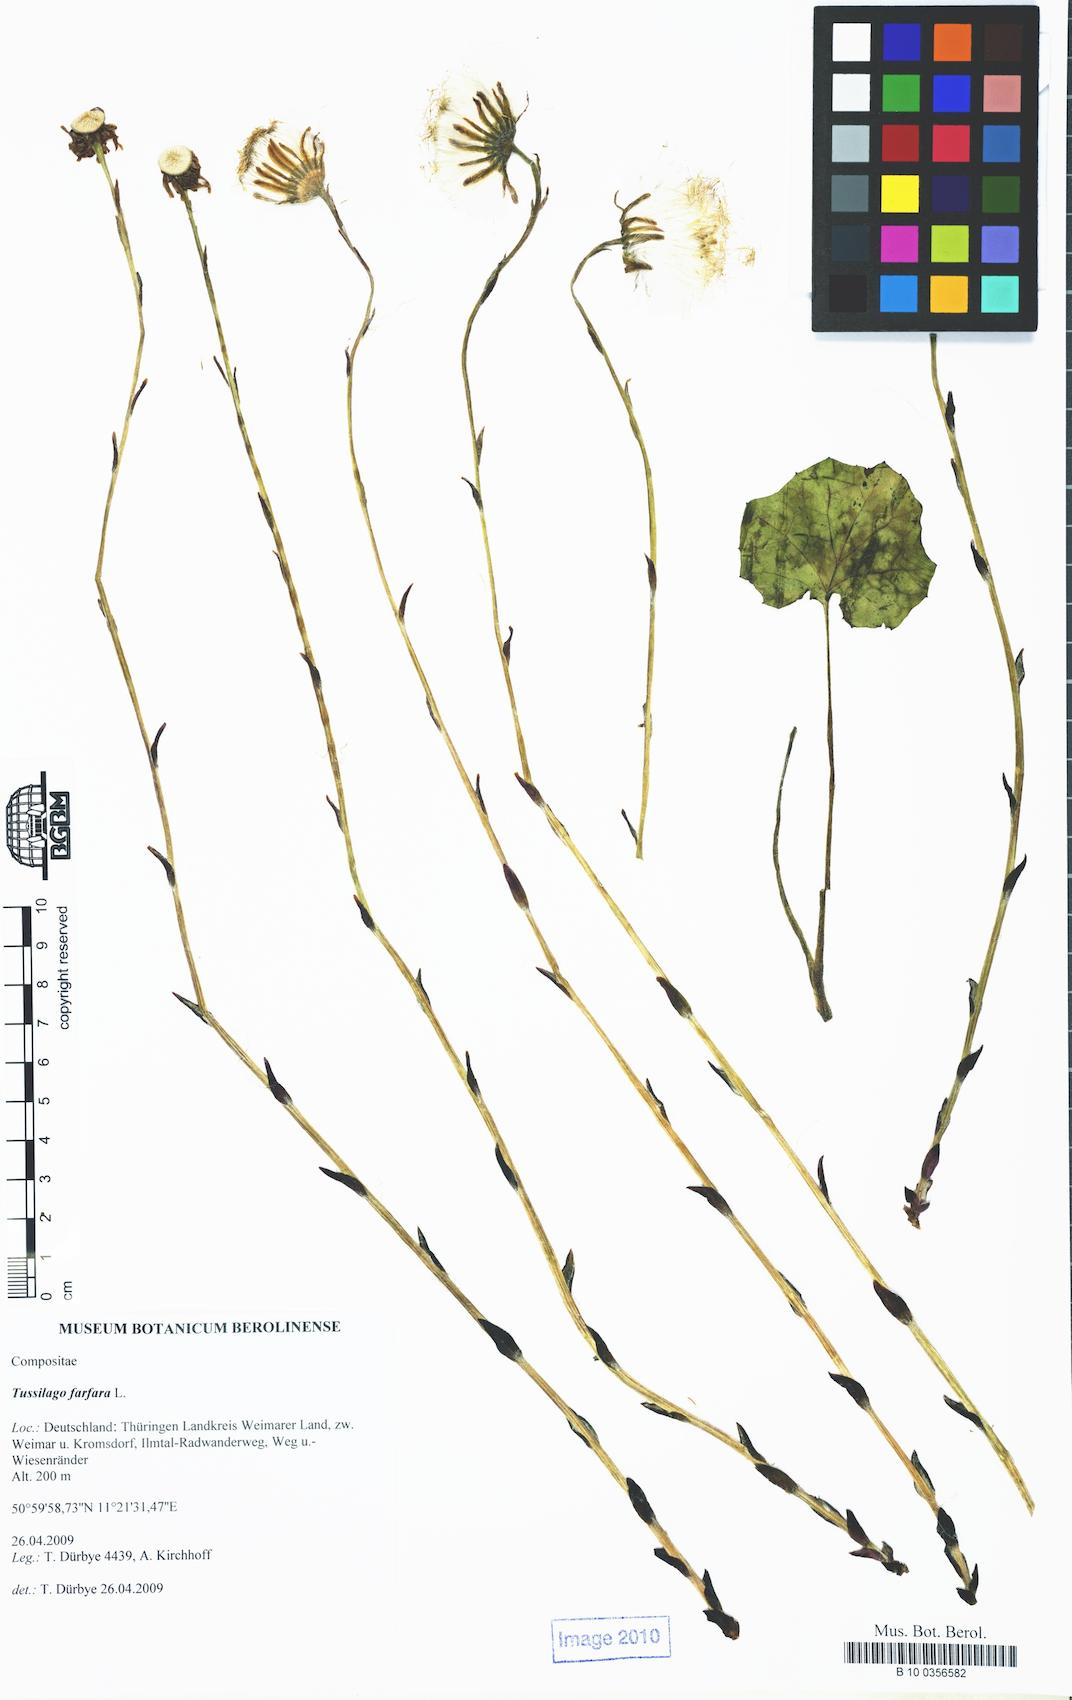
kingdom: Plantae
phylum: Tracheophyta
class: Magnoliopsida
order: Asterales
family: Asteraceae
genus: Tussilago
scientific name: Tussilago farfara
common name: Coltsfoot
